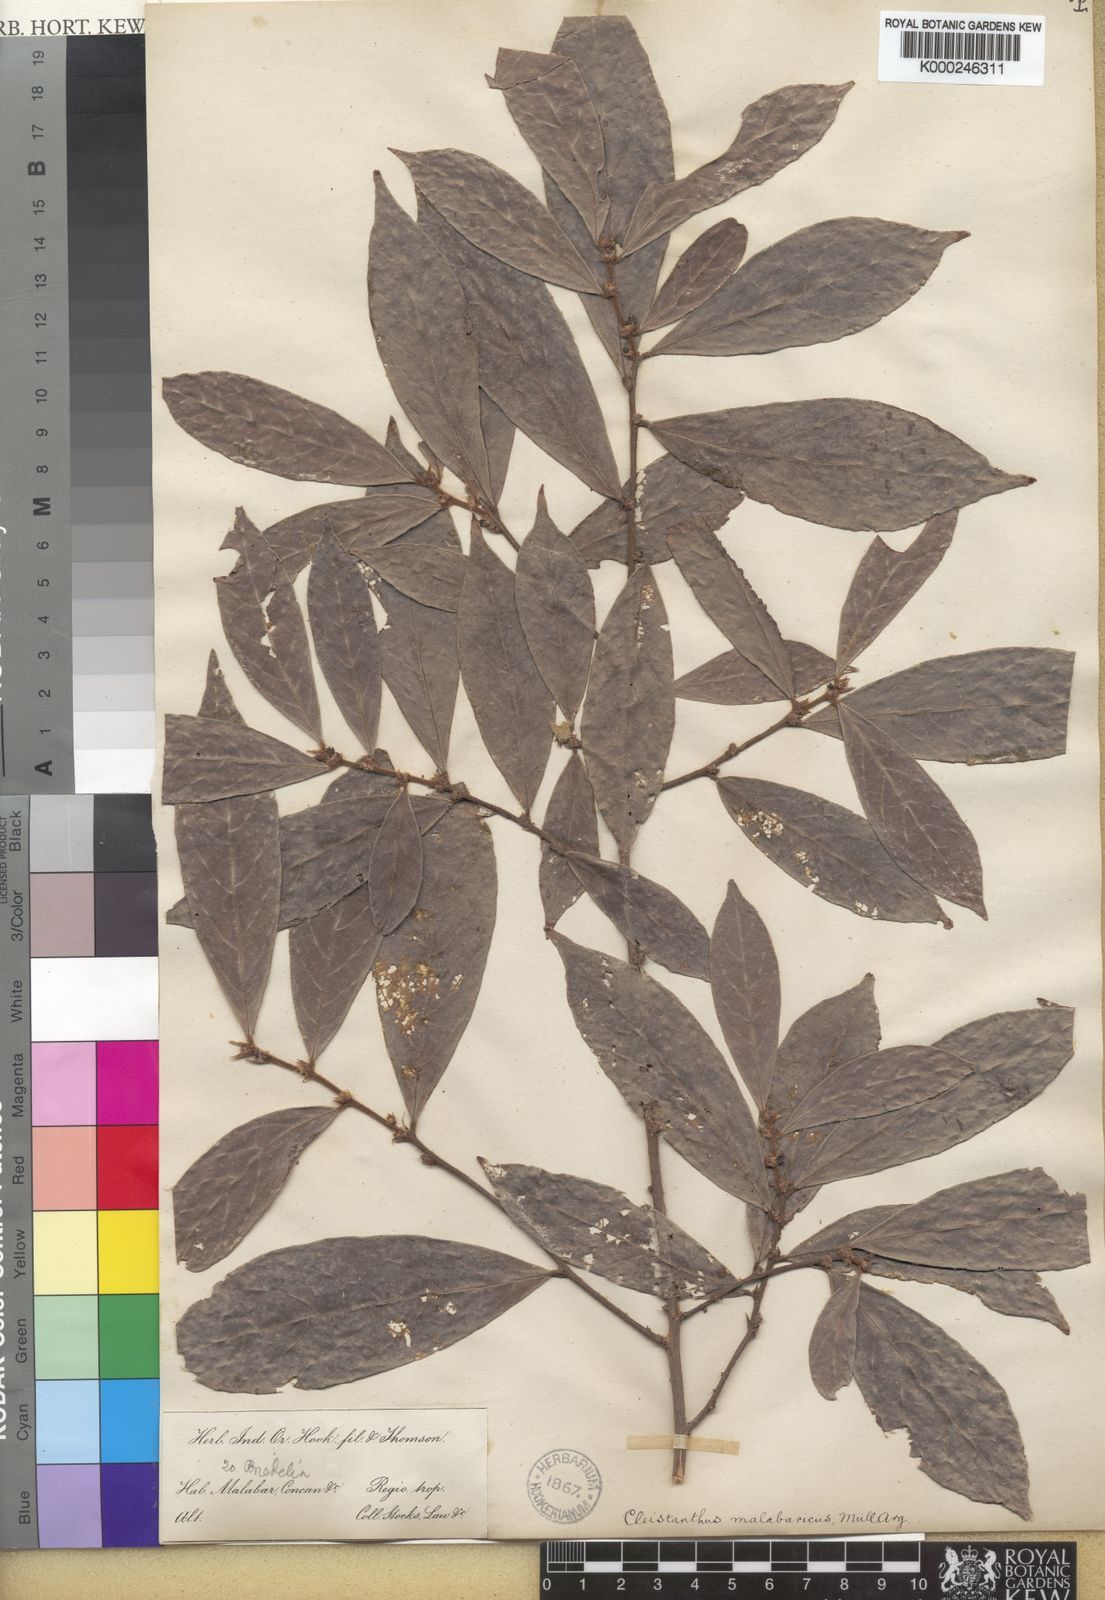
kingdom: Plantae
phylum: Tracheophyta
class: Magnoliopsida
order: Malpighiales
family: Phyllanthaceae
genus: Cleistanthus
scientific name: Cleistanthus
